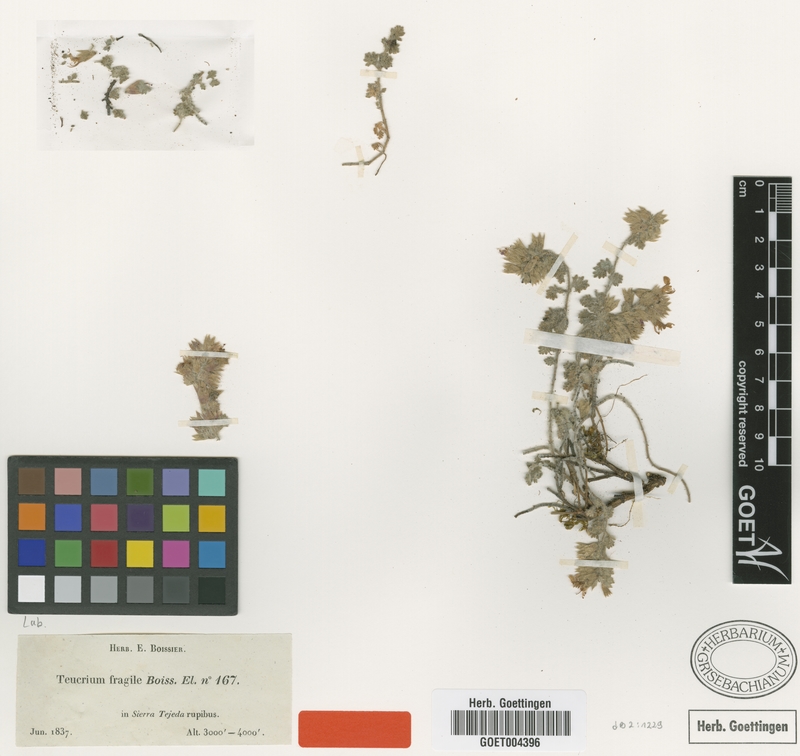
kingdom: Plantae
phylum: Tracheophyta
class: Magnoliopsida
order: Lamiales
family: Lamiaceae
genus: Teucrium
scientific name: Teucrium fragile
